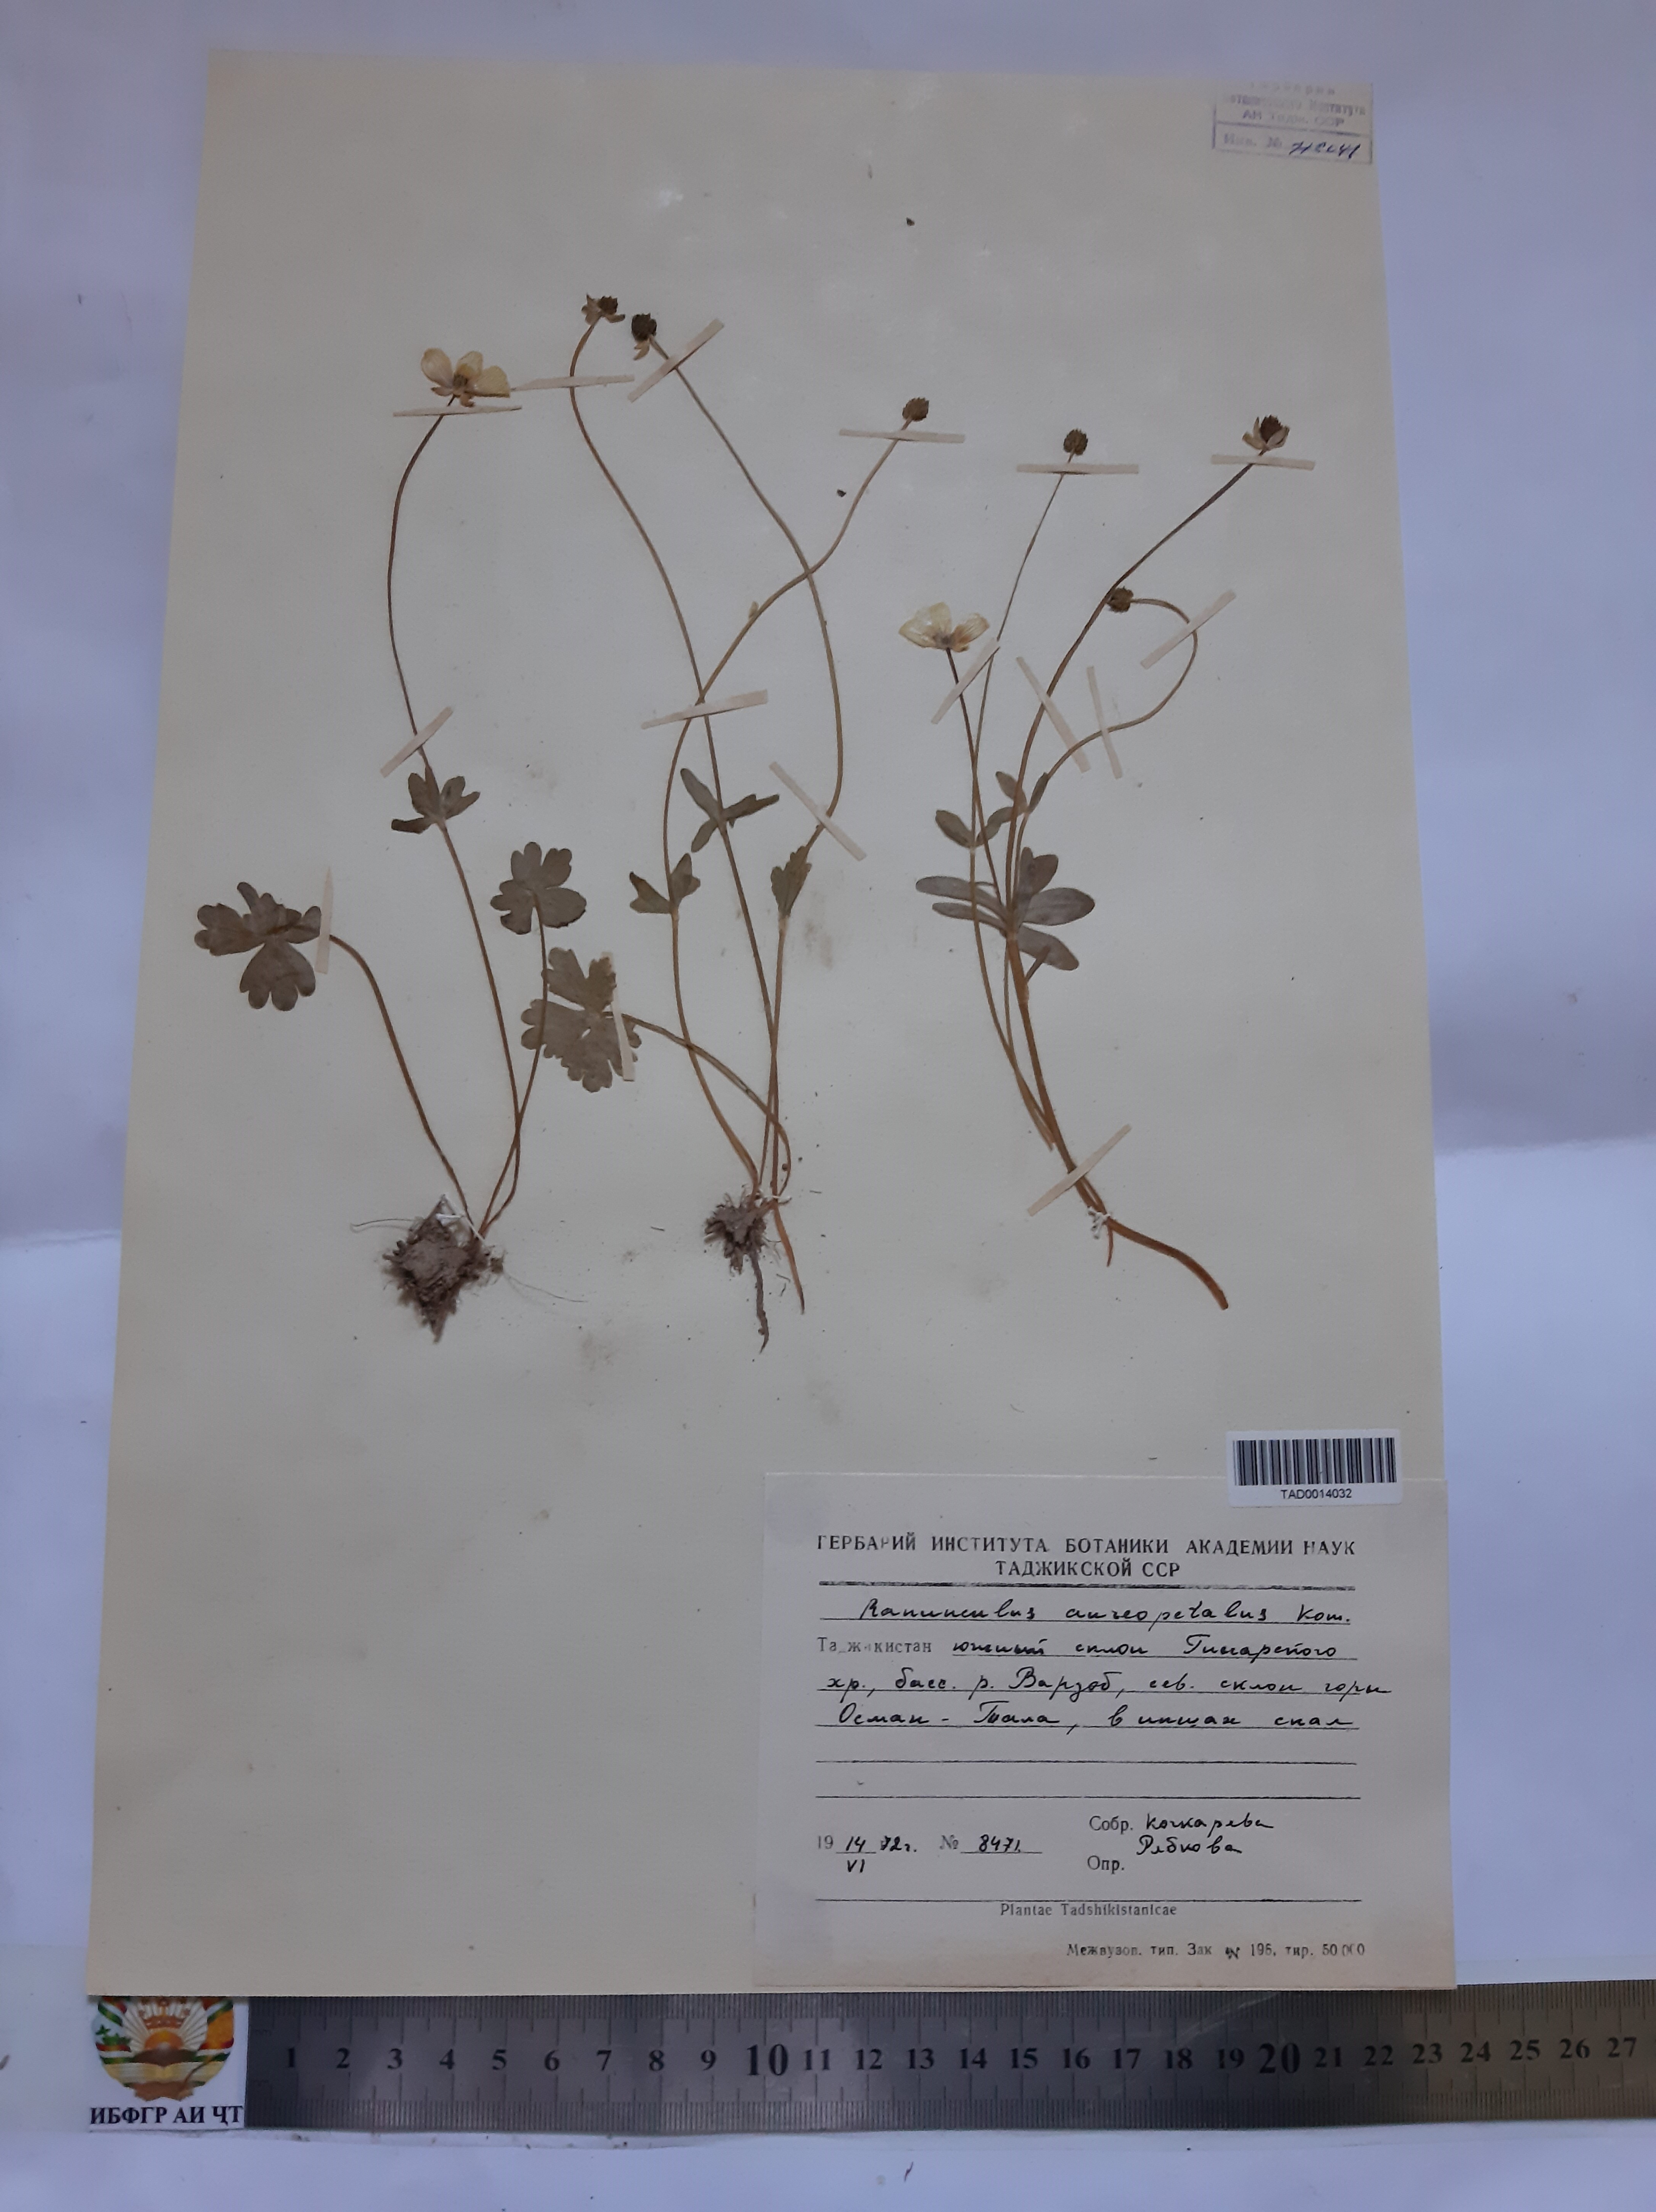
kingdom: Plantae
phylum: Tracheophyta
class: Magnoliopsida
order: Ranunculales
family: Ranunculaceae
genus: Ranunculus
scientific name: Ranunculus aureopetalus
